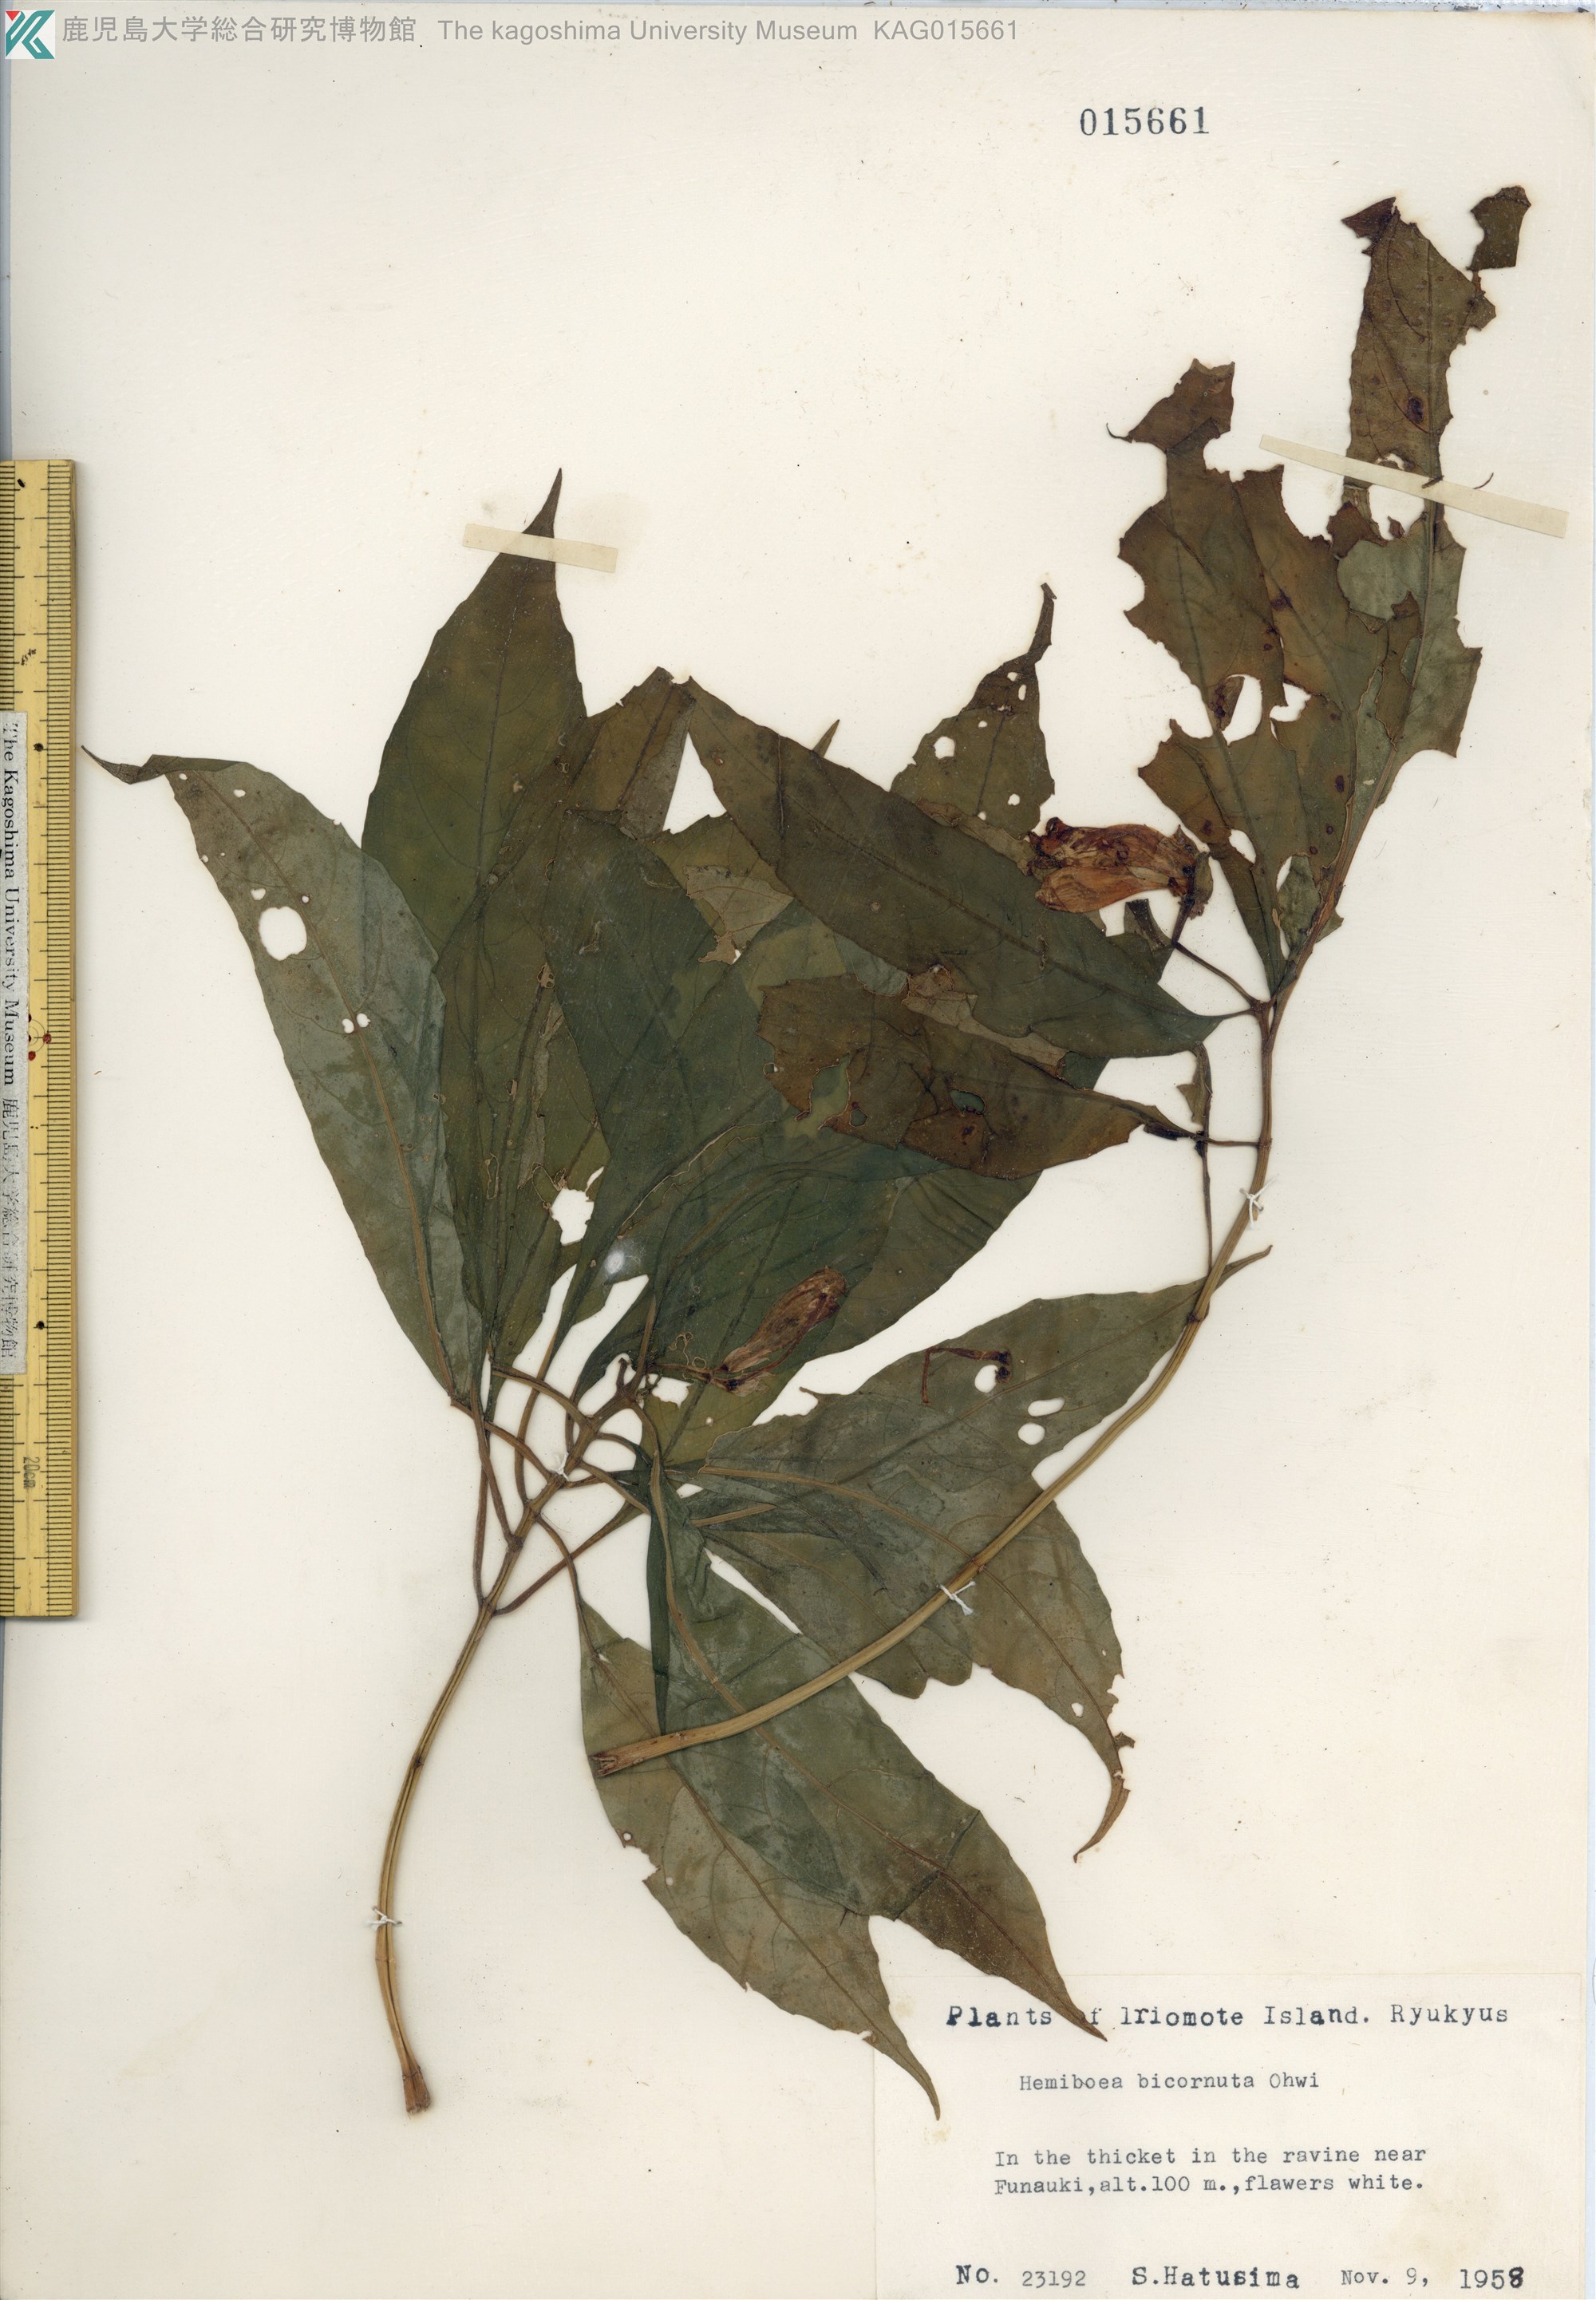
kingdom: Plantae
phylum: Tracheophyta
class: Magnoliopsida
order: Lamiales
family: Gesneriaceae
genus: Hemiboea
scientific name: Hemiboea bicornuta
